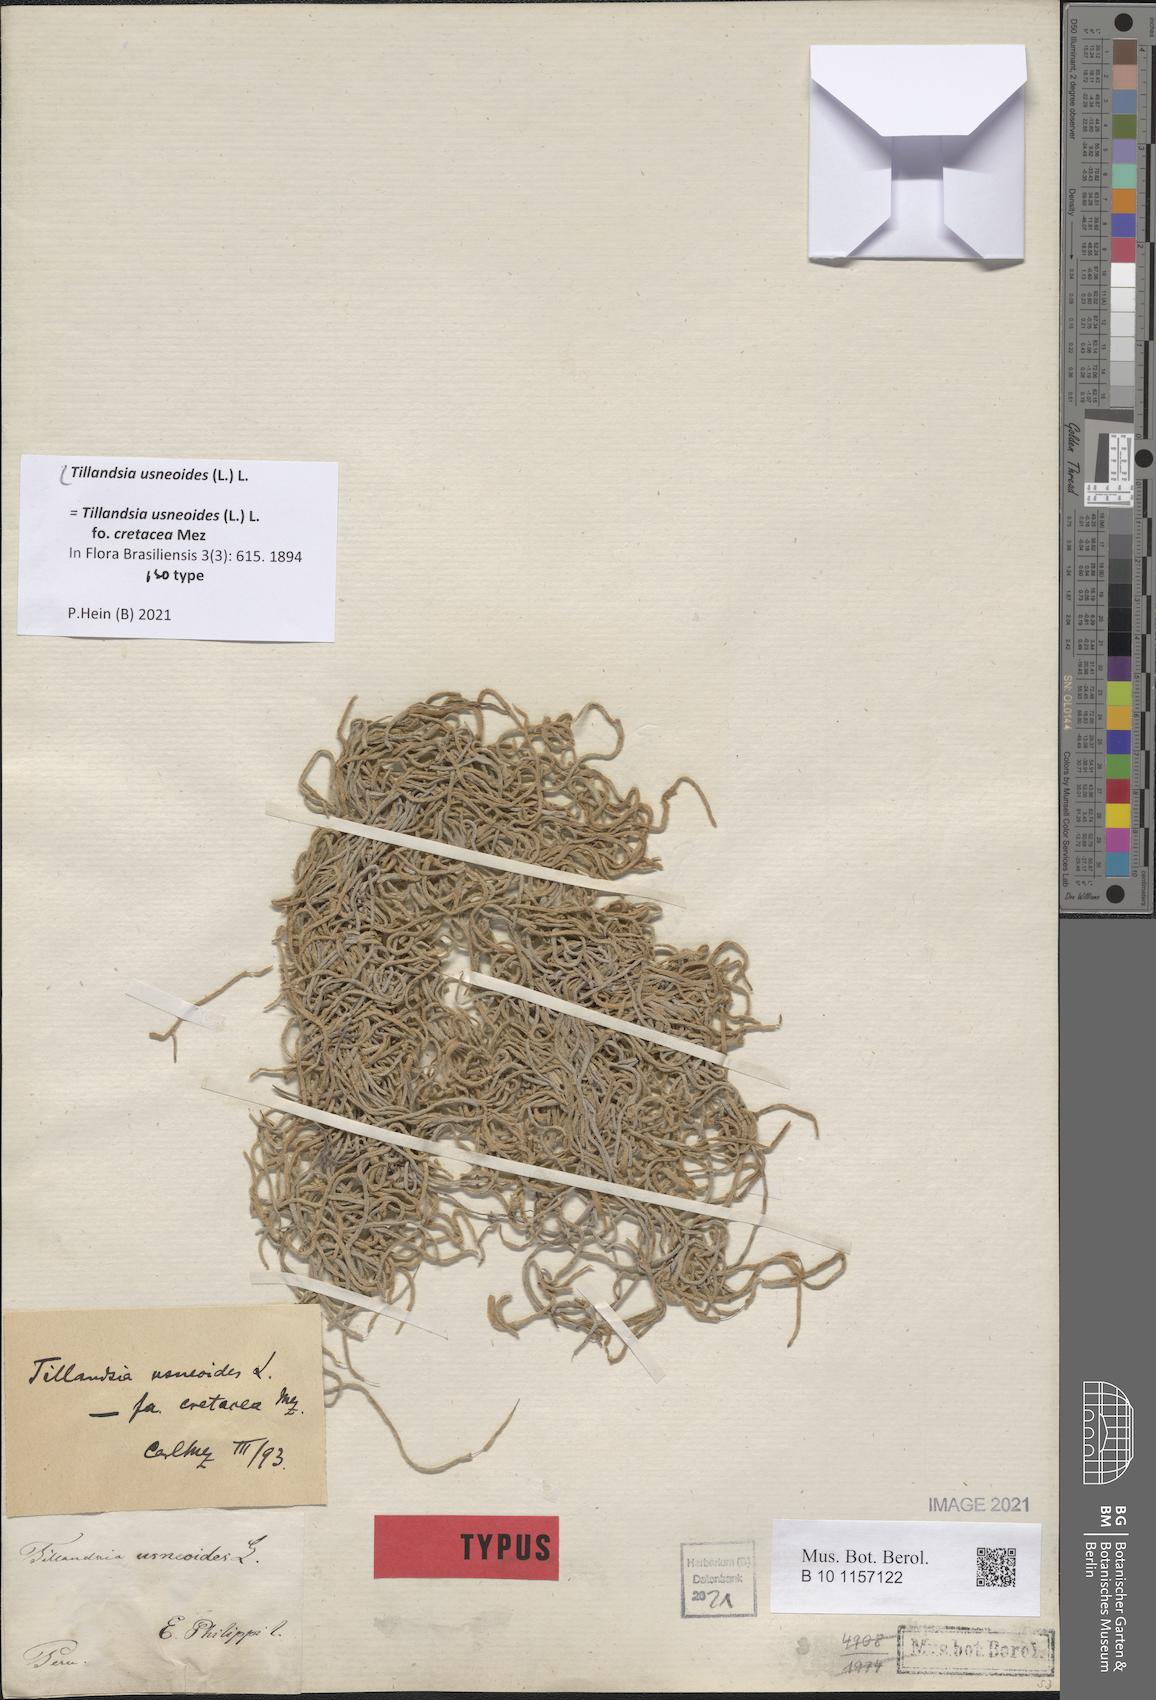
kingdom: Plantae
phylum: Tracheophyta
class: Liliopsida
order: Poales
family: Bromeliaceae
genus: Tillandsia
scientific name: Tillandsia usneoides
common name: Spanish moss
